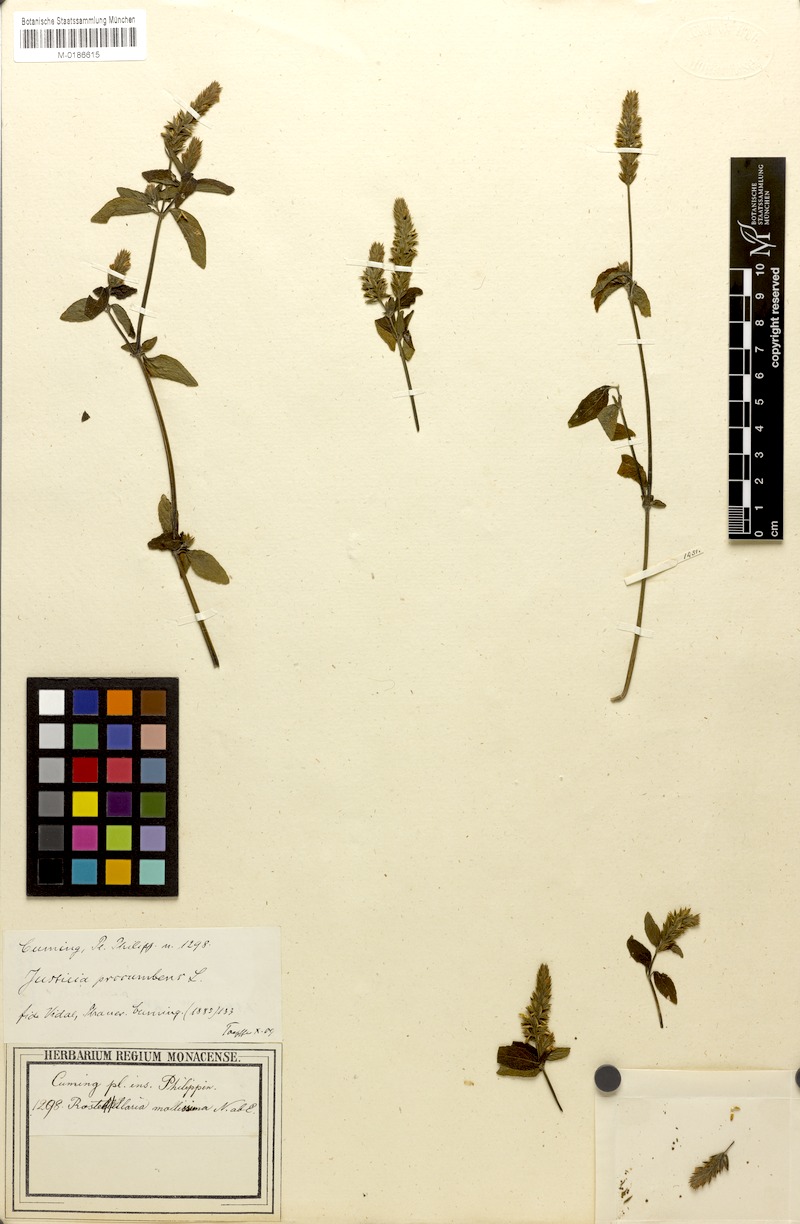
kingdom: Plantae
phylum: Tracheophyta
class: Magnoliopsida
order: Lamiales
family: Acanthaceae
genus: Rostellularia
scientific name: Rostellularia mollissima
